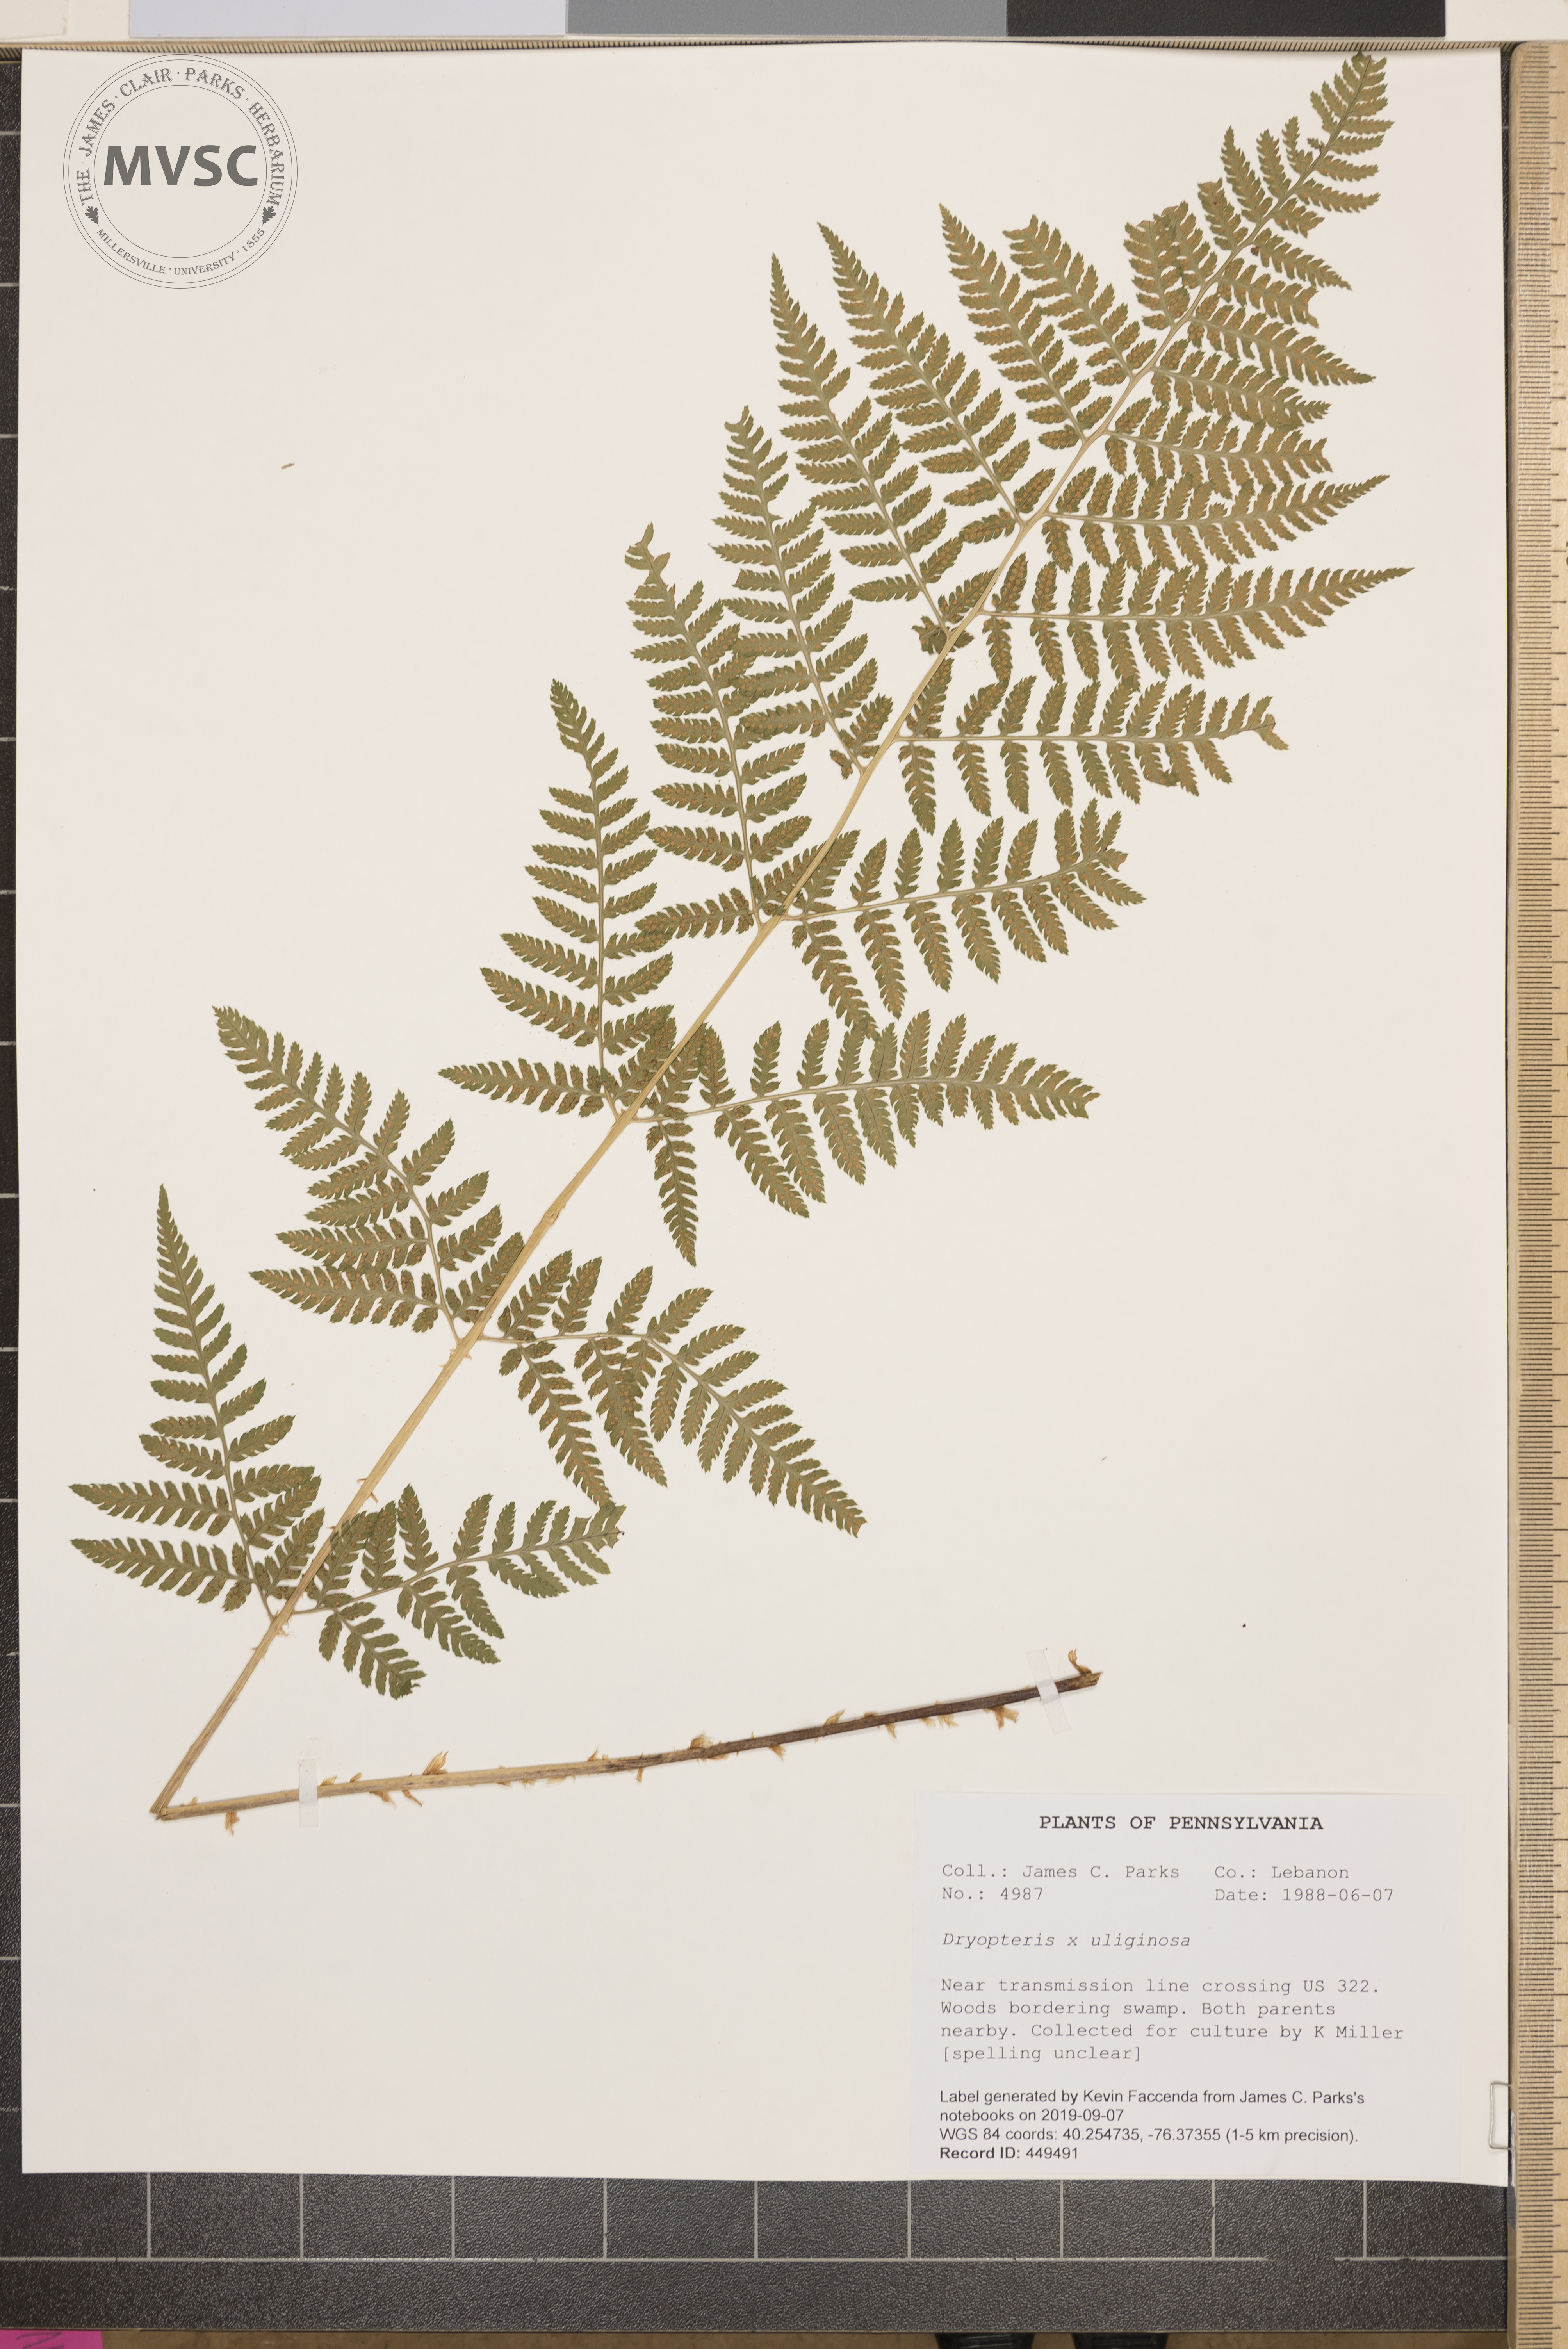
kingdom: Plantae
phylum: Tracheophyta
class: Polypodiopsida
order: Polypodiales
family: Dryopteridaceae
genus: Dryopteris
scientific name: Dryopteris uliginosa
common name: Woodfern
